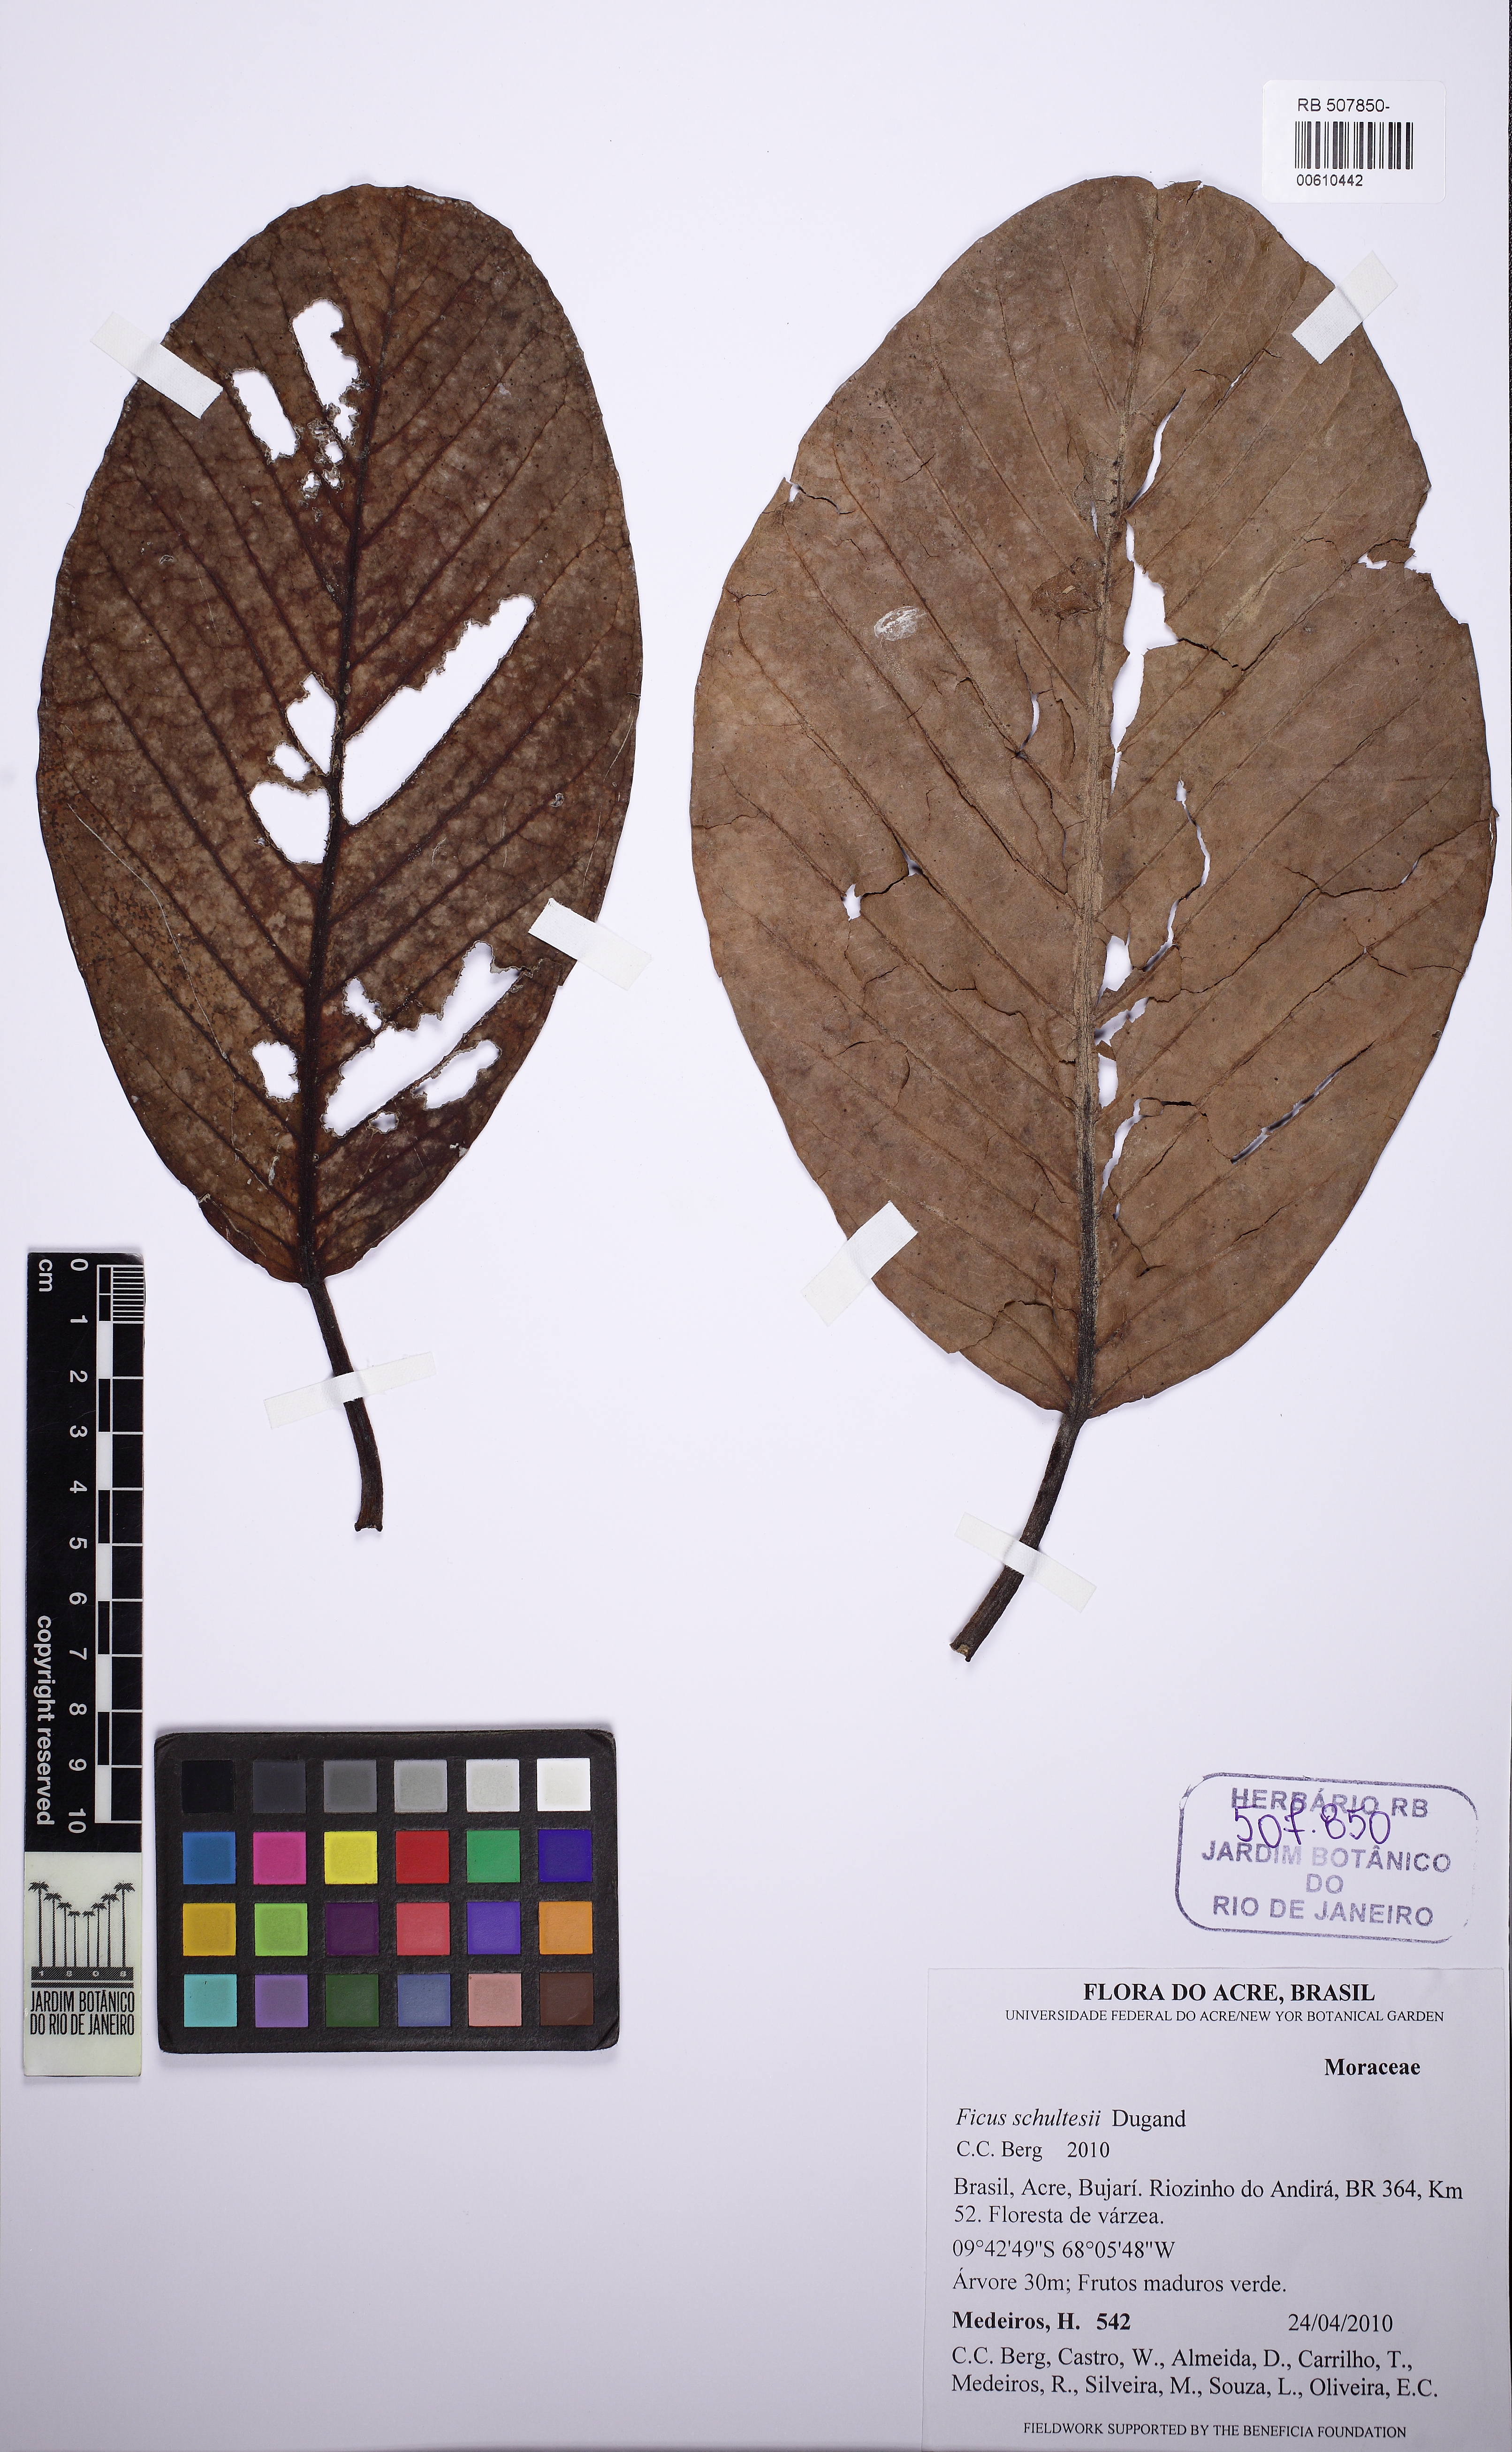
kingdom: Plantae
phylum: Tracheophyta
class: Magnoliopsida
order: Rosales
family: Moraceae
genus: Ficus
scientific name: Ficus christianii
